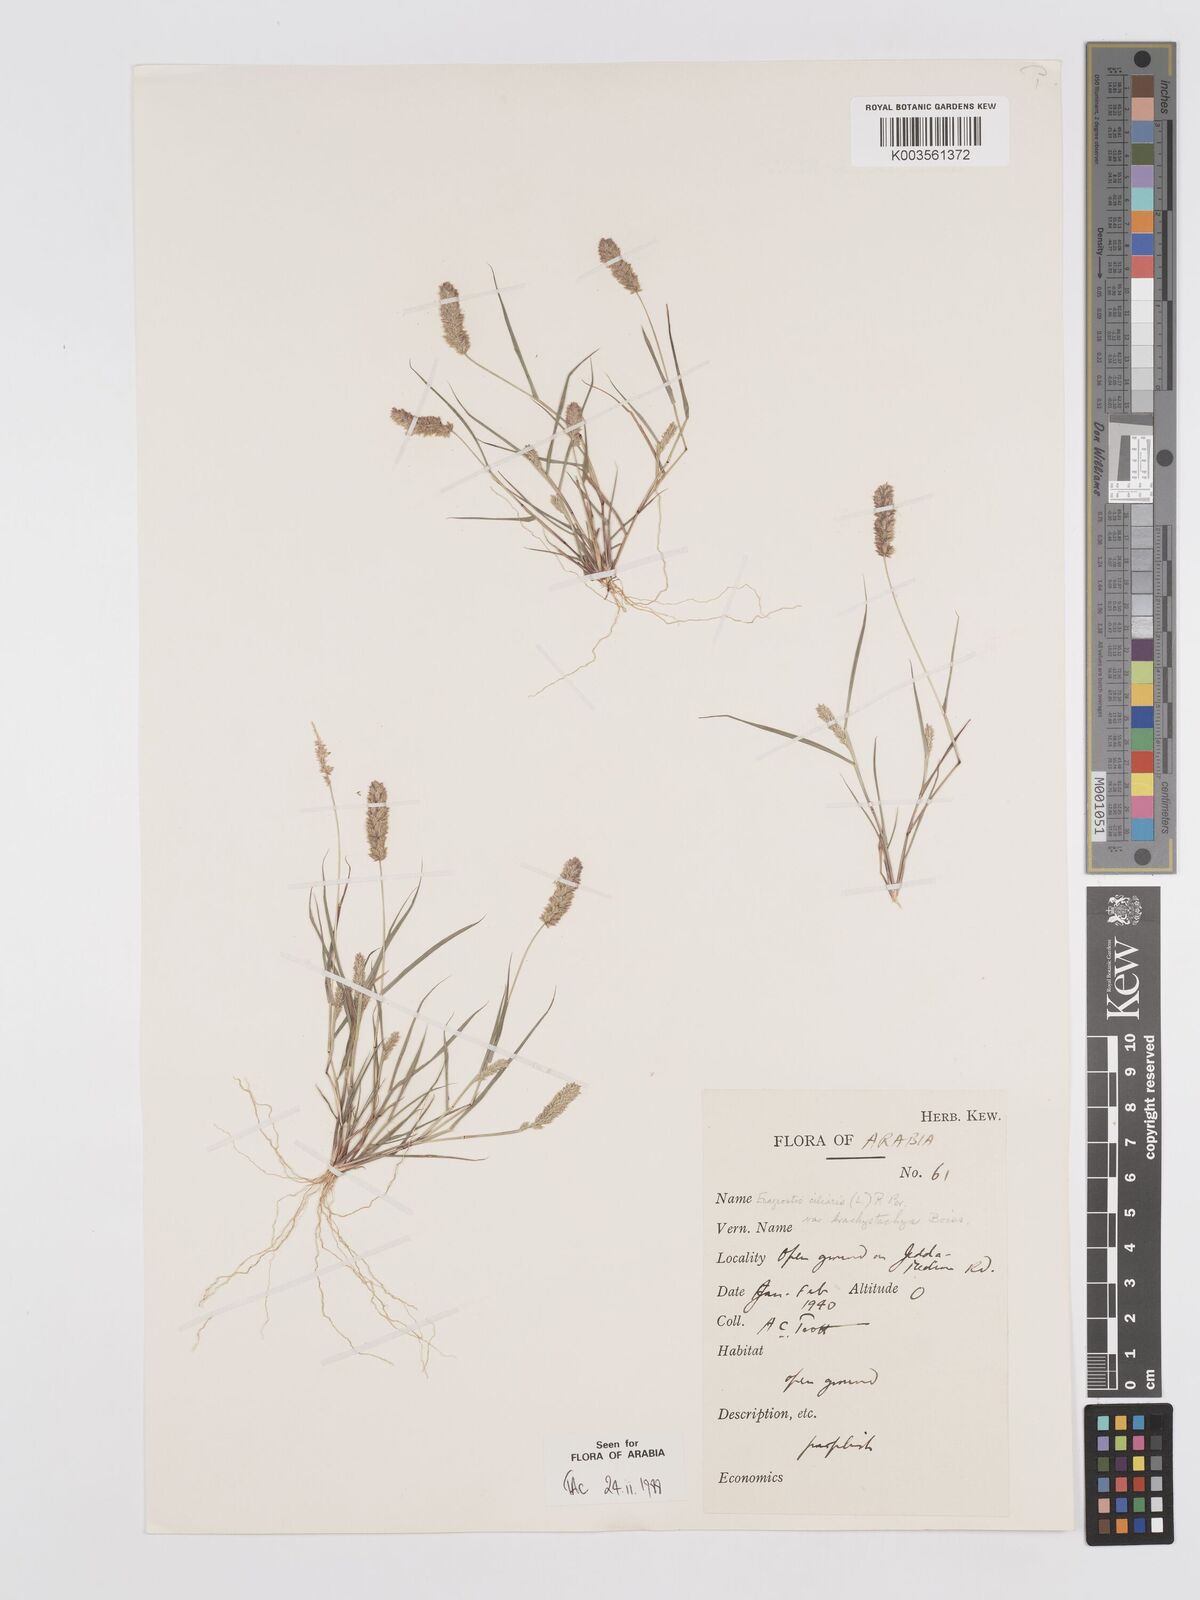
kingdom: Plantae
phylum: Tracheophyta
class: Liliopsida
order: Poales
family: Poaceae
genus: Eragrostis
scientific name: Eragrostis ciliaris
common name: Gophertail lovegrass
